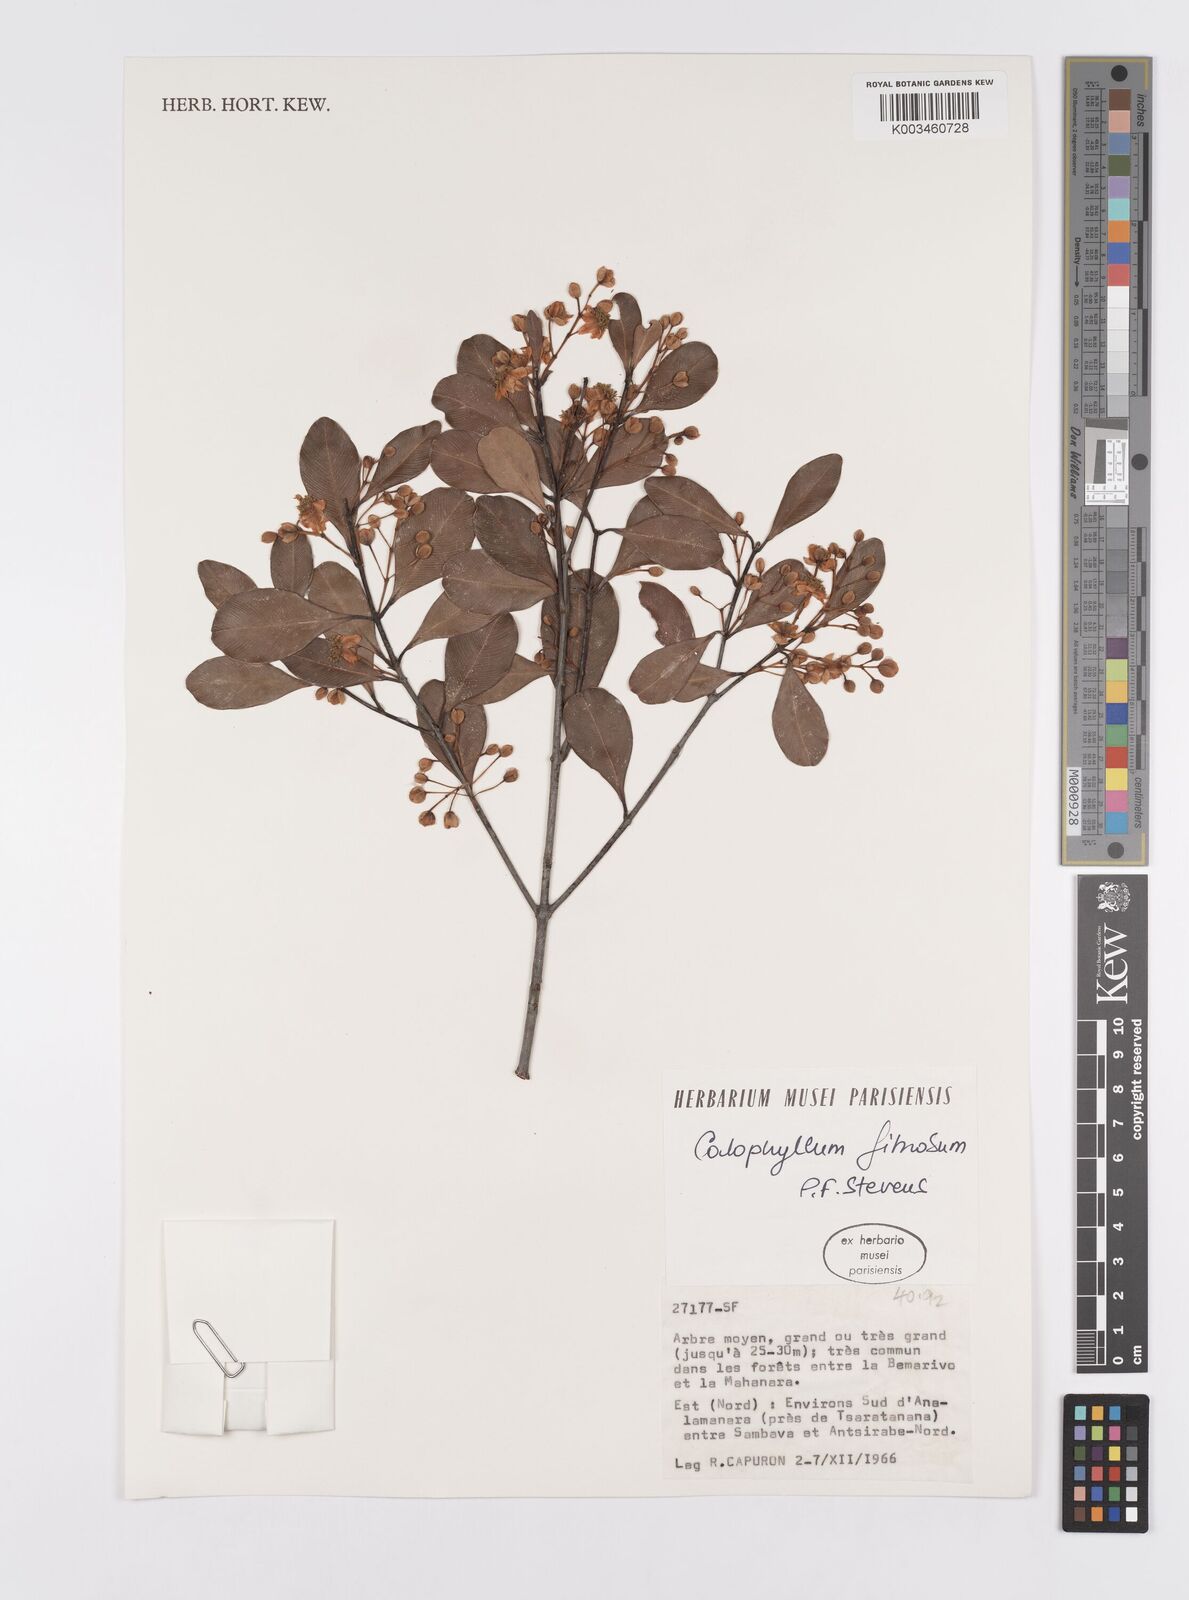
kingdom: Plantae
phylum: Tracheophyta
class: Magnoliopsida
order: Malpighiales
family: Calophyllaceae
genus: Calophyllum
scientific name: Calophyllum fibrosum
